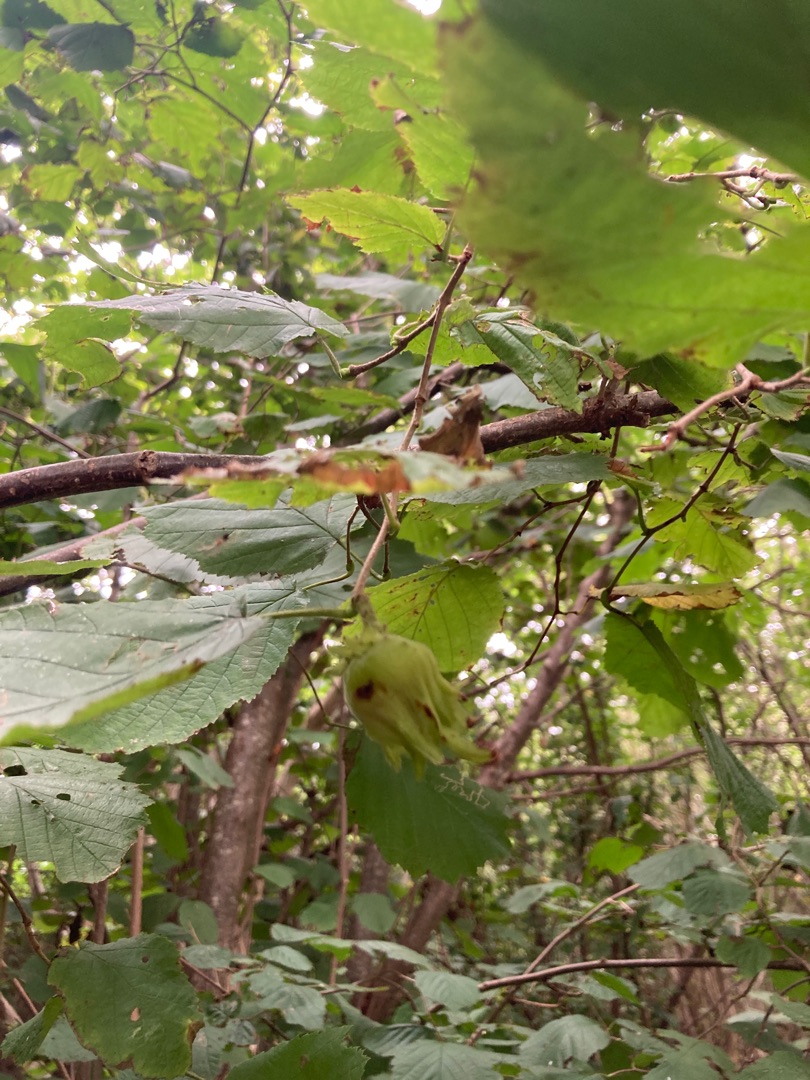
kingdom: Plantae
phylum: Tracheophyta
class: Magnoliopsida
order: Fagales
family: Betulaceae
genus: Corylus
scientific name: Corylus avellana
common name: Hassel
